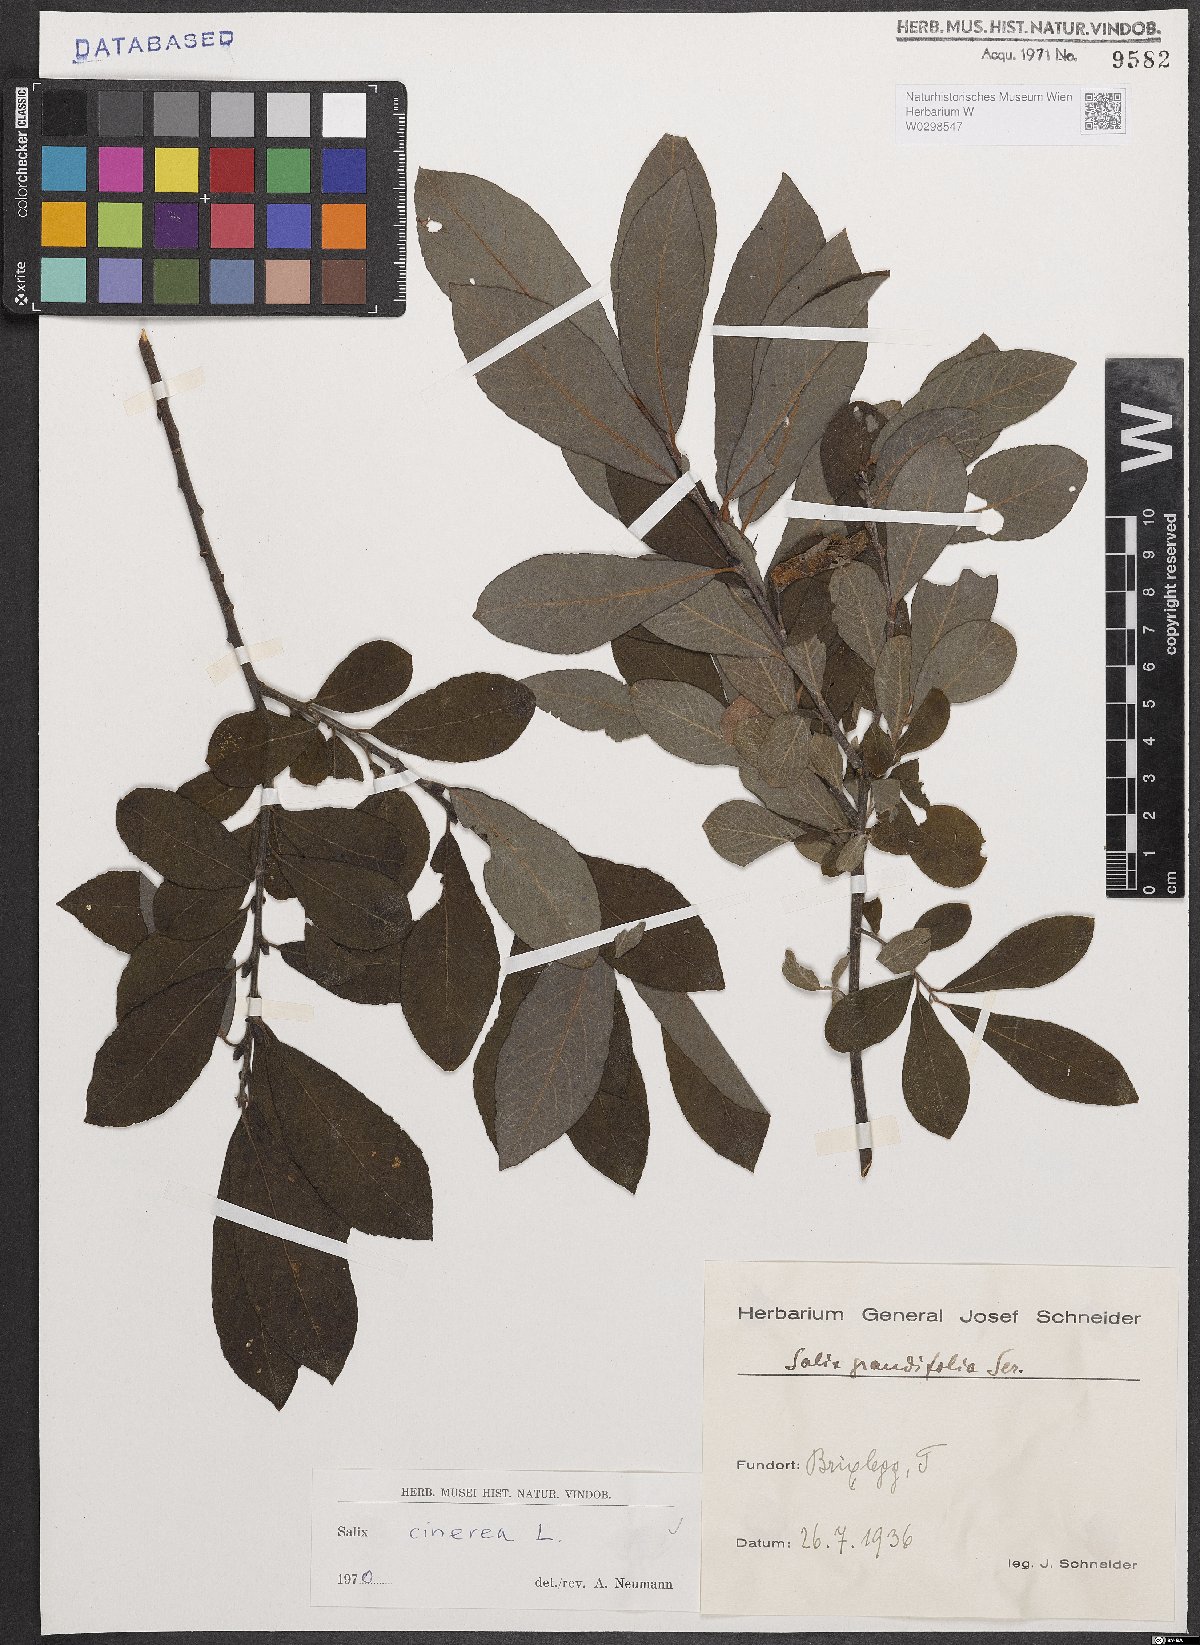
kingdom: Plantae
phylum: Tracheophyta
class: Magnoliopsida
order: Malpighiales
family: Salicaceae
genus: Salix
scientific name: Salix cinerea
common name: Common sallow
